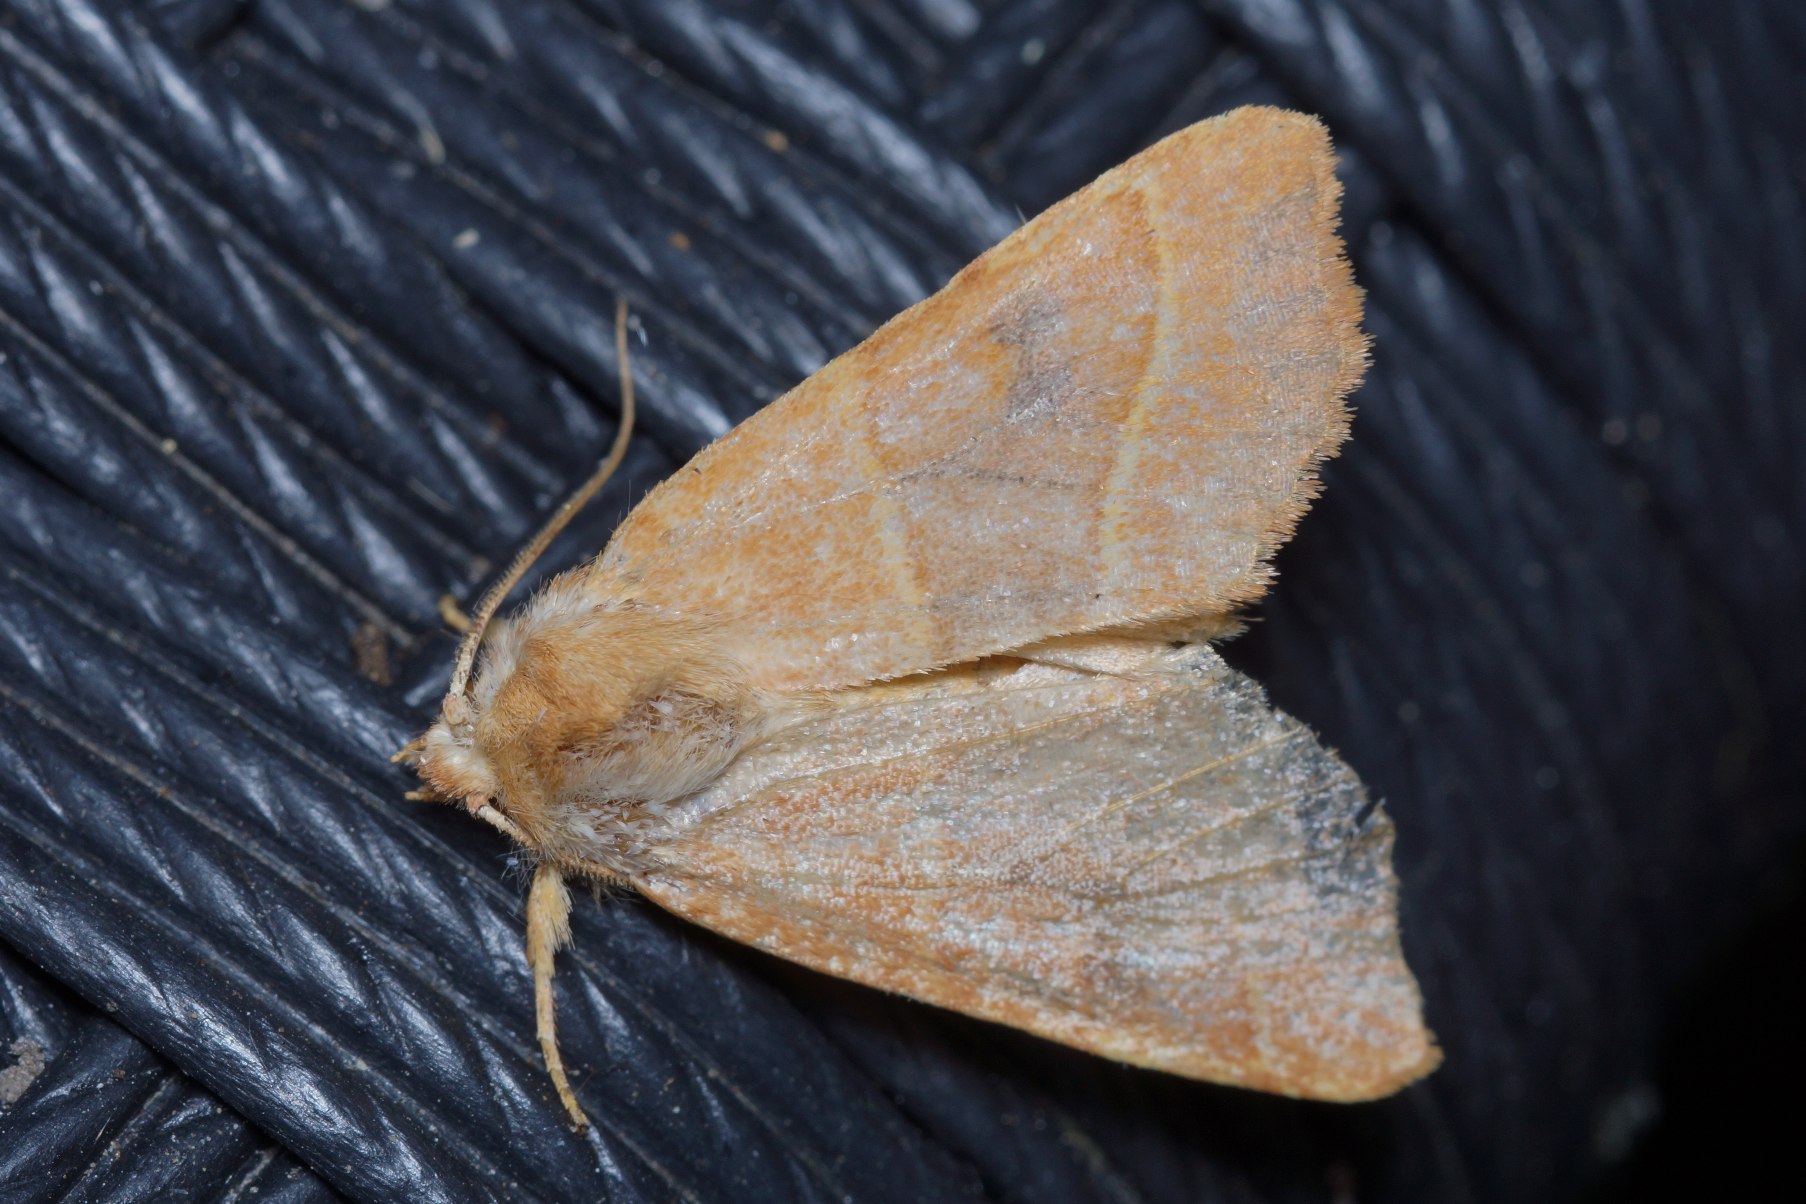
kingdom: Animalia
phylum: Arthropoda
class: Insecta
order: Lepidoptera
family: Noctuidae
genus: Atethmia
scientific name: Atethmia centrago
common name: Aske-septemberugle
